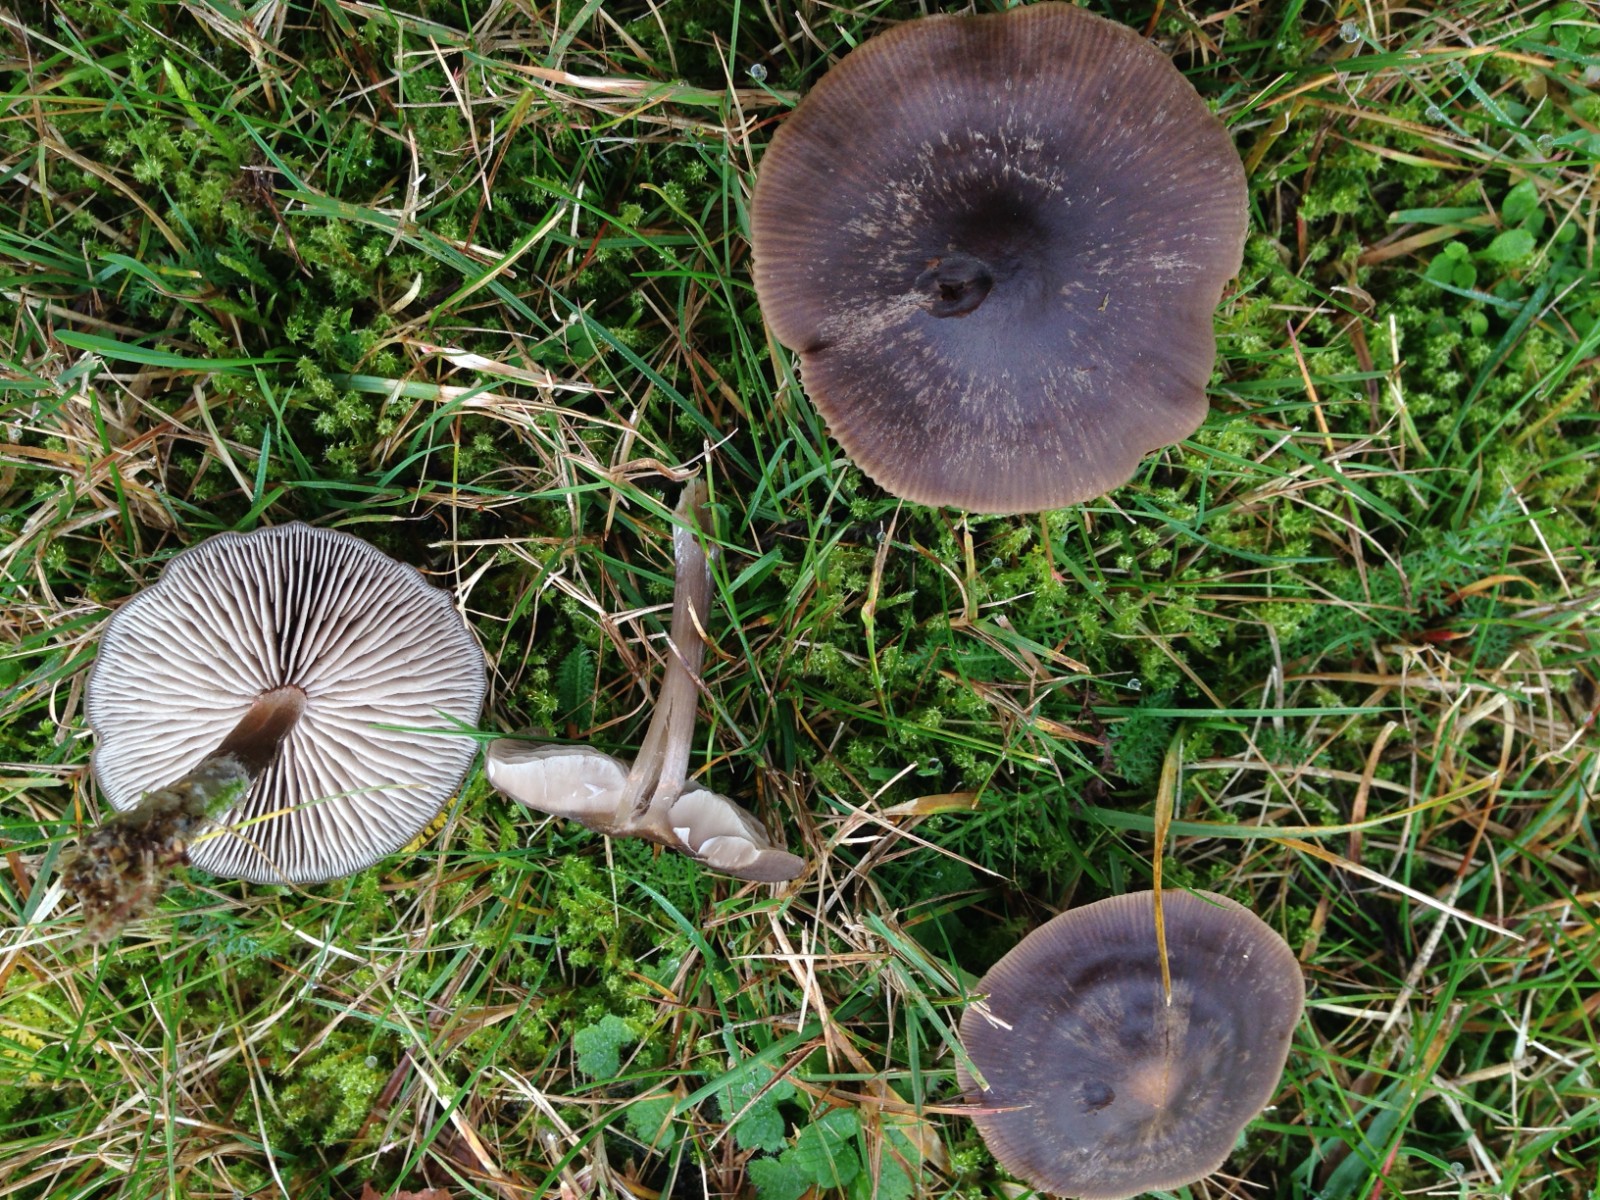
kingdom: Fungi
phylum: Basidiomycota
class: Agaricomycetes
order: Agaricales
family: Entolomataceae
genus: Entoloma
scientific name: Entoloma
